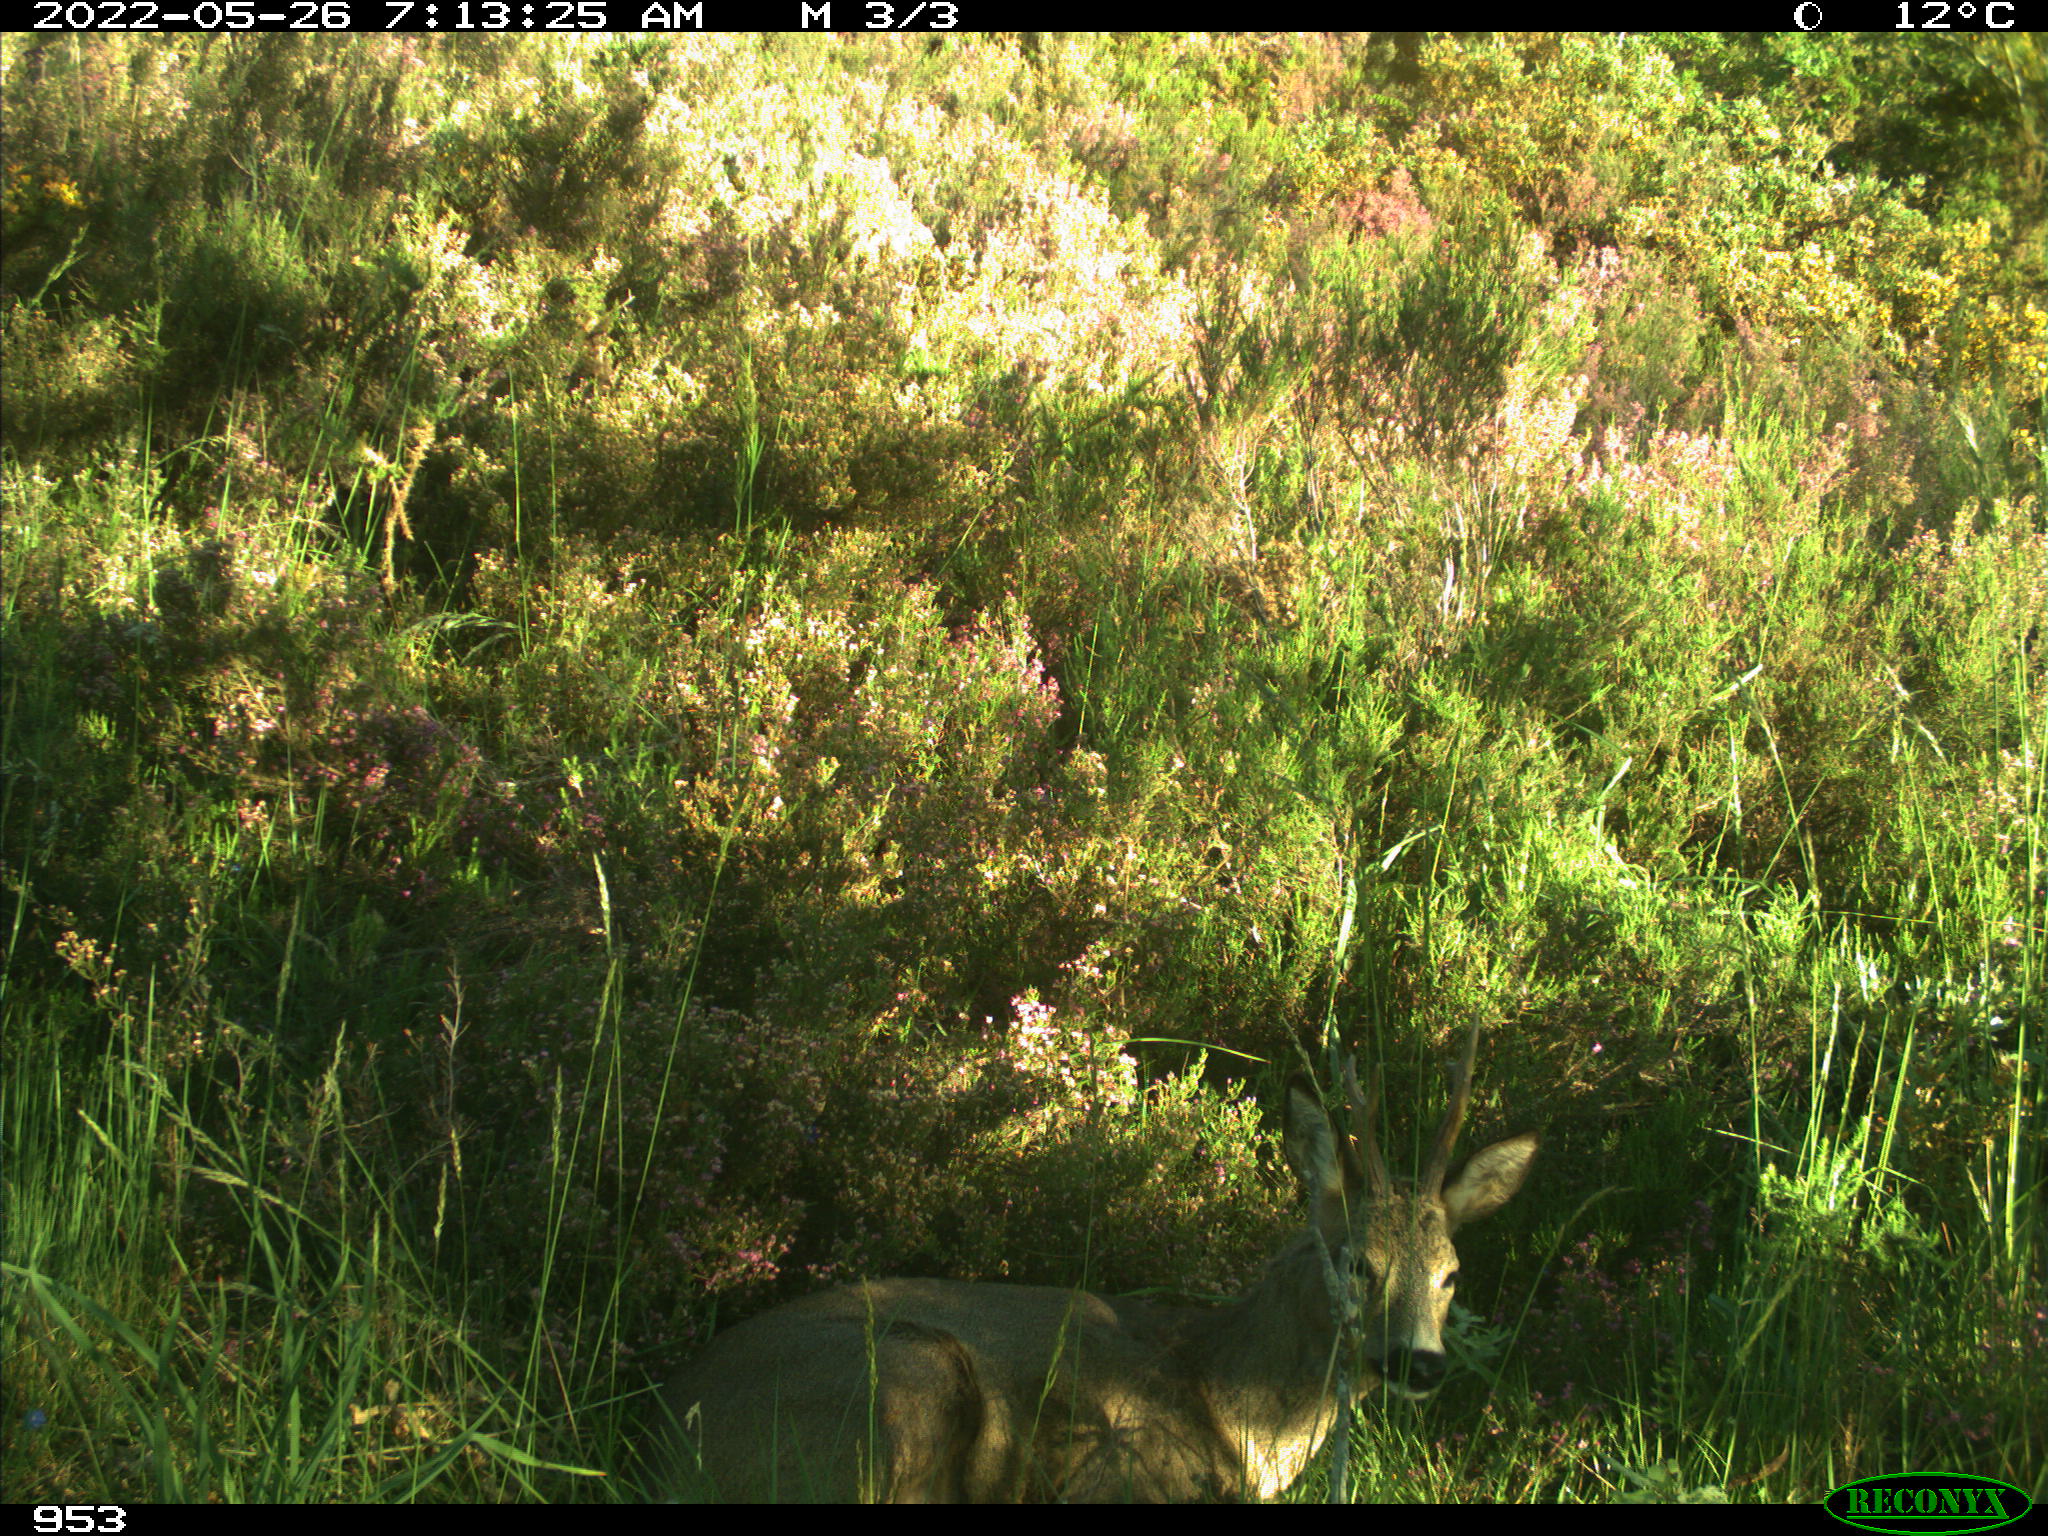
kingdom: Animalia
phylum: Chordata
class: Mammalia
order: Artiodactyla
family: Cervidae
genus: Capreolus
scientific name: Capreolus capreolus
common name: Western roe deer
